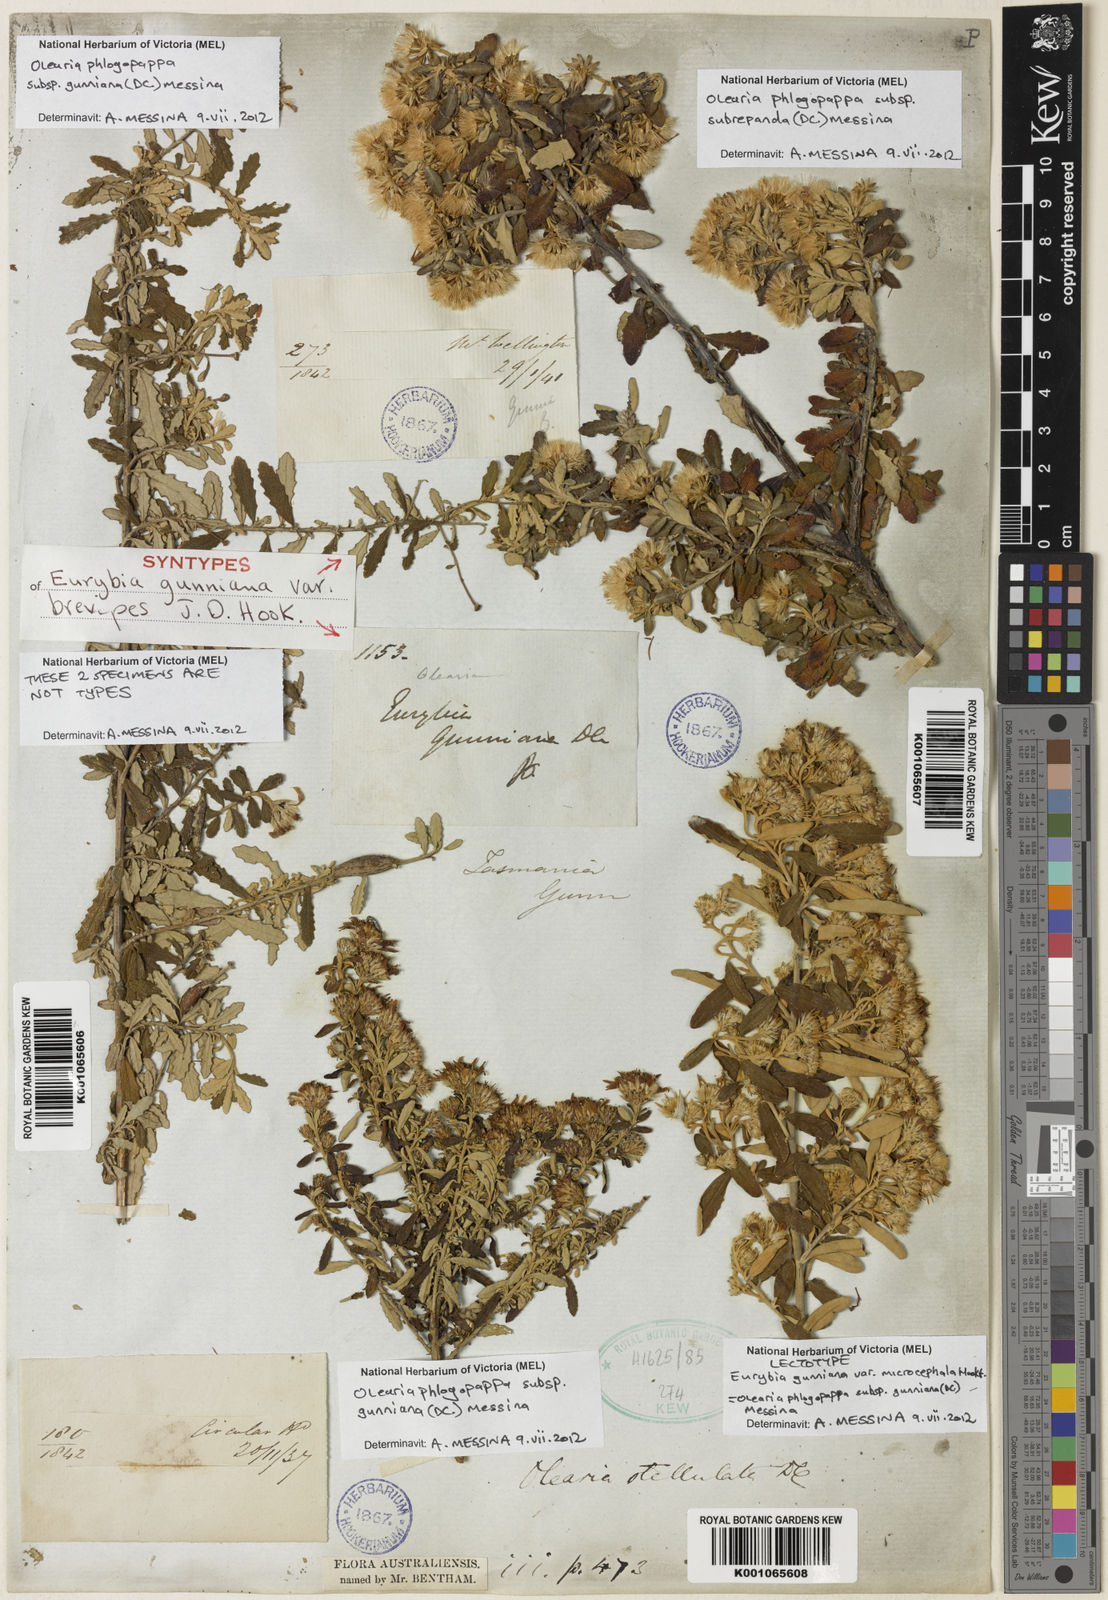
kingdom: Plantae
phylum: Tracheophyta
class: Magnoliopsida
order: Asterales
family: Asteraceae
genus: Olearia
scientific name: Olearia phlogopappa
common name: Alpine daisybush
